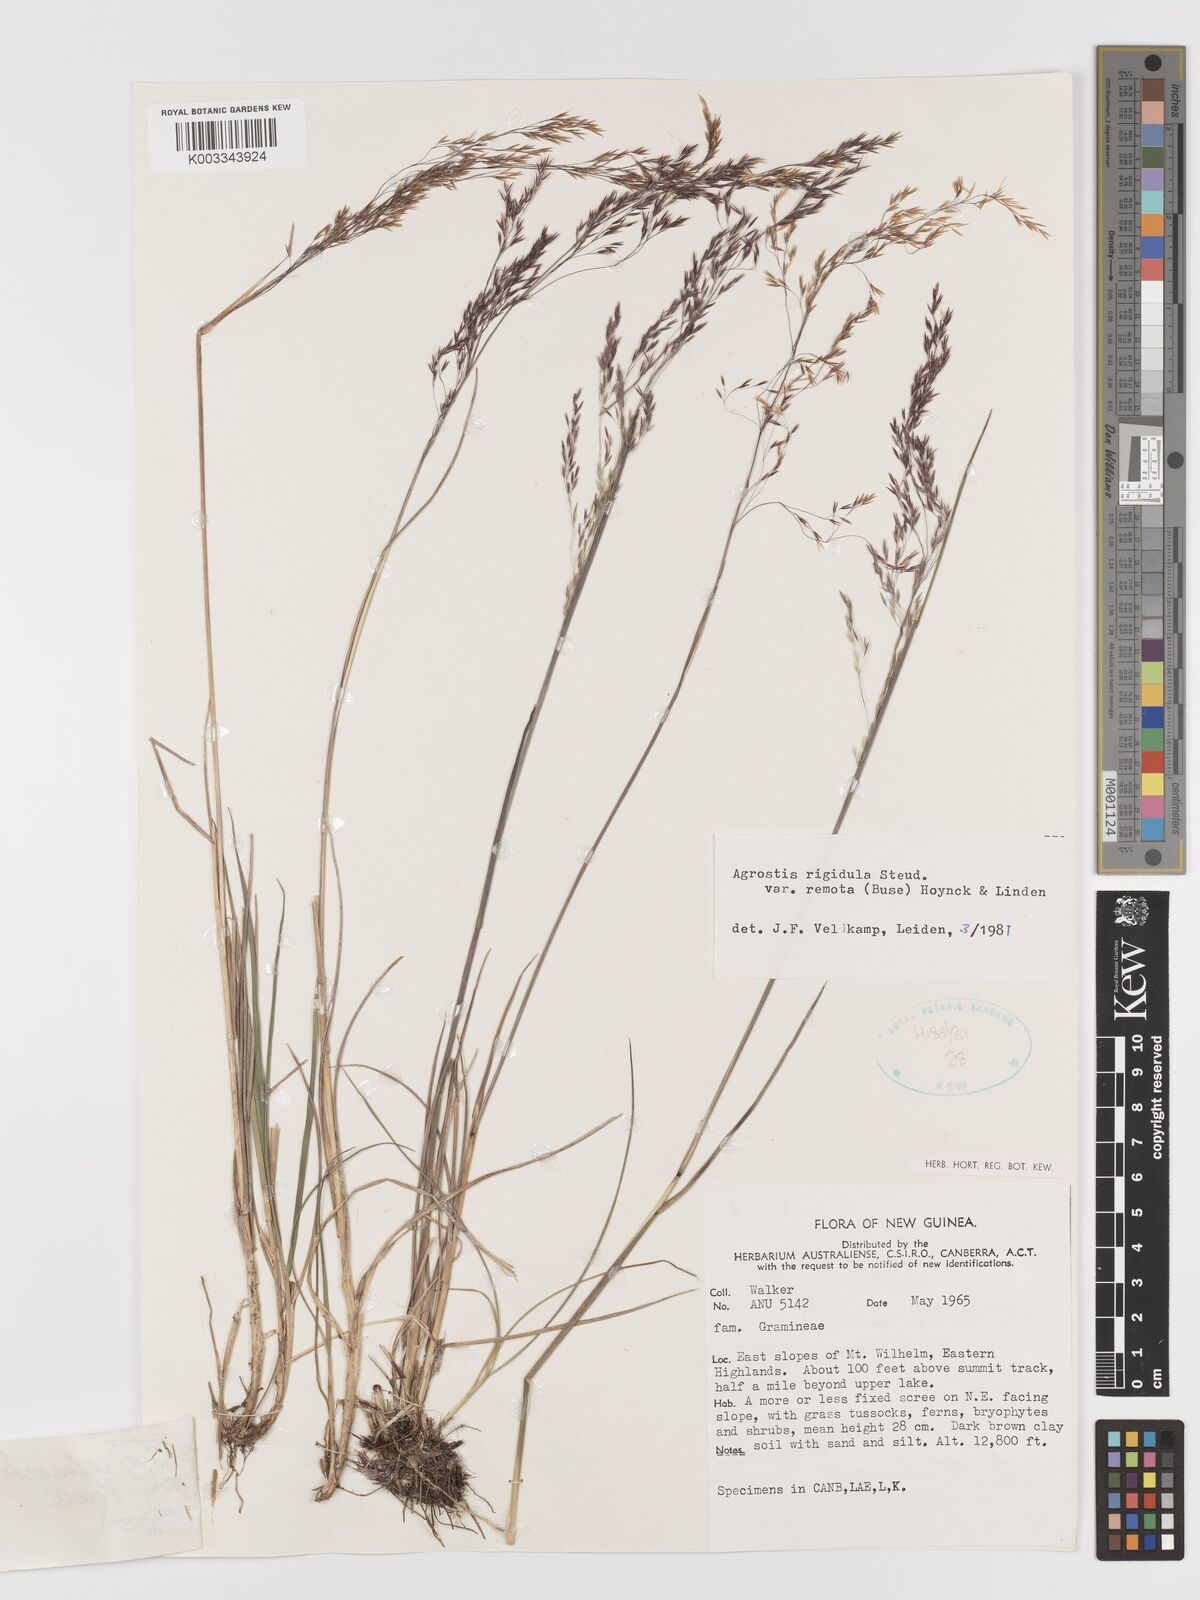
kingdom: Plantae
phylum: Tracheophyta
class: Liliopsida
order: Poales
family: Poaceae
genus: Agrostis
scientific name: Agrostis infirma
